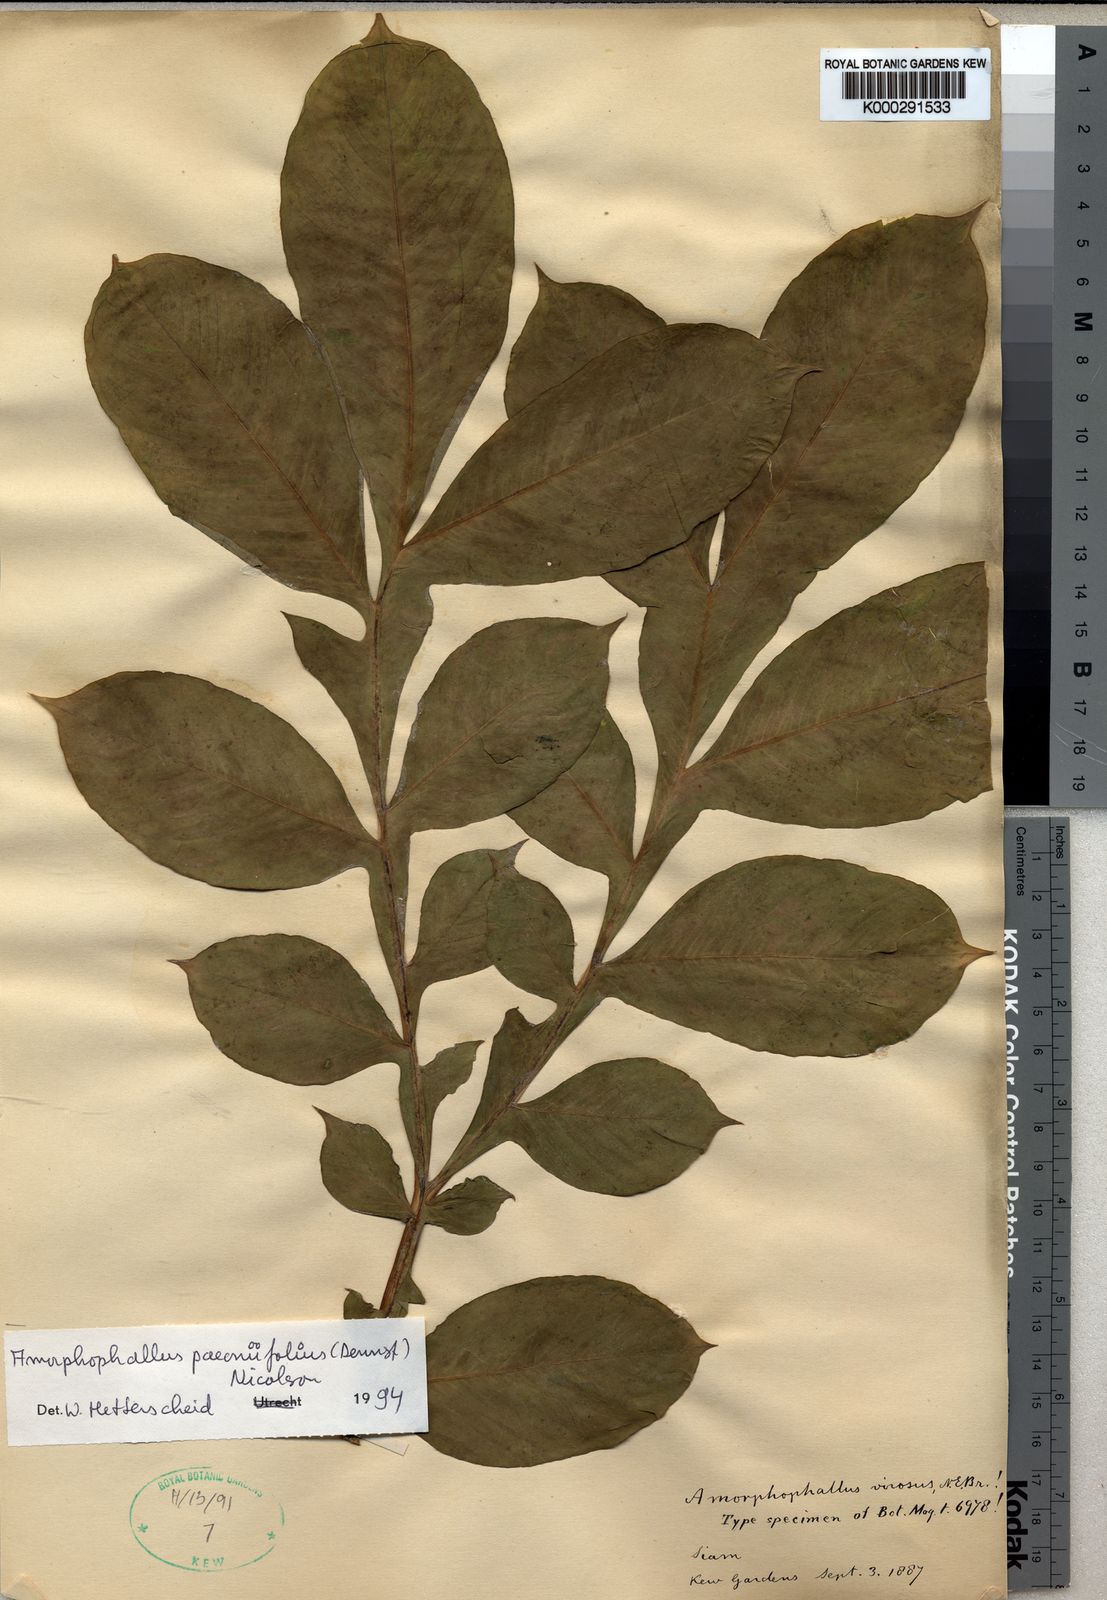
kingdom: Plantae
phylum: Tracheophyta
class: Liliopsida
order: Alismatales
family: Araceae
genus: Amorphophallus
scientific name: Amorphophallus paeoniifolius
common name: Telinga-potato
